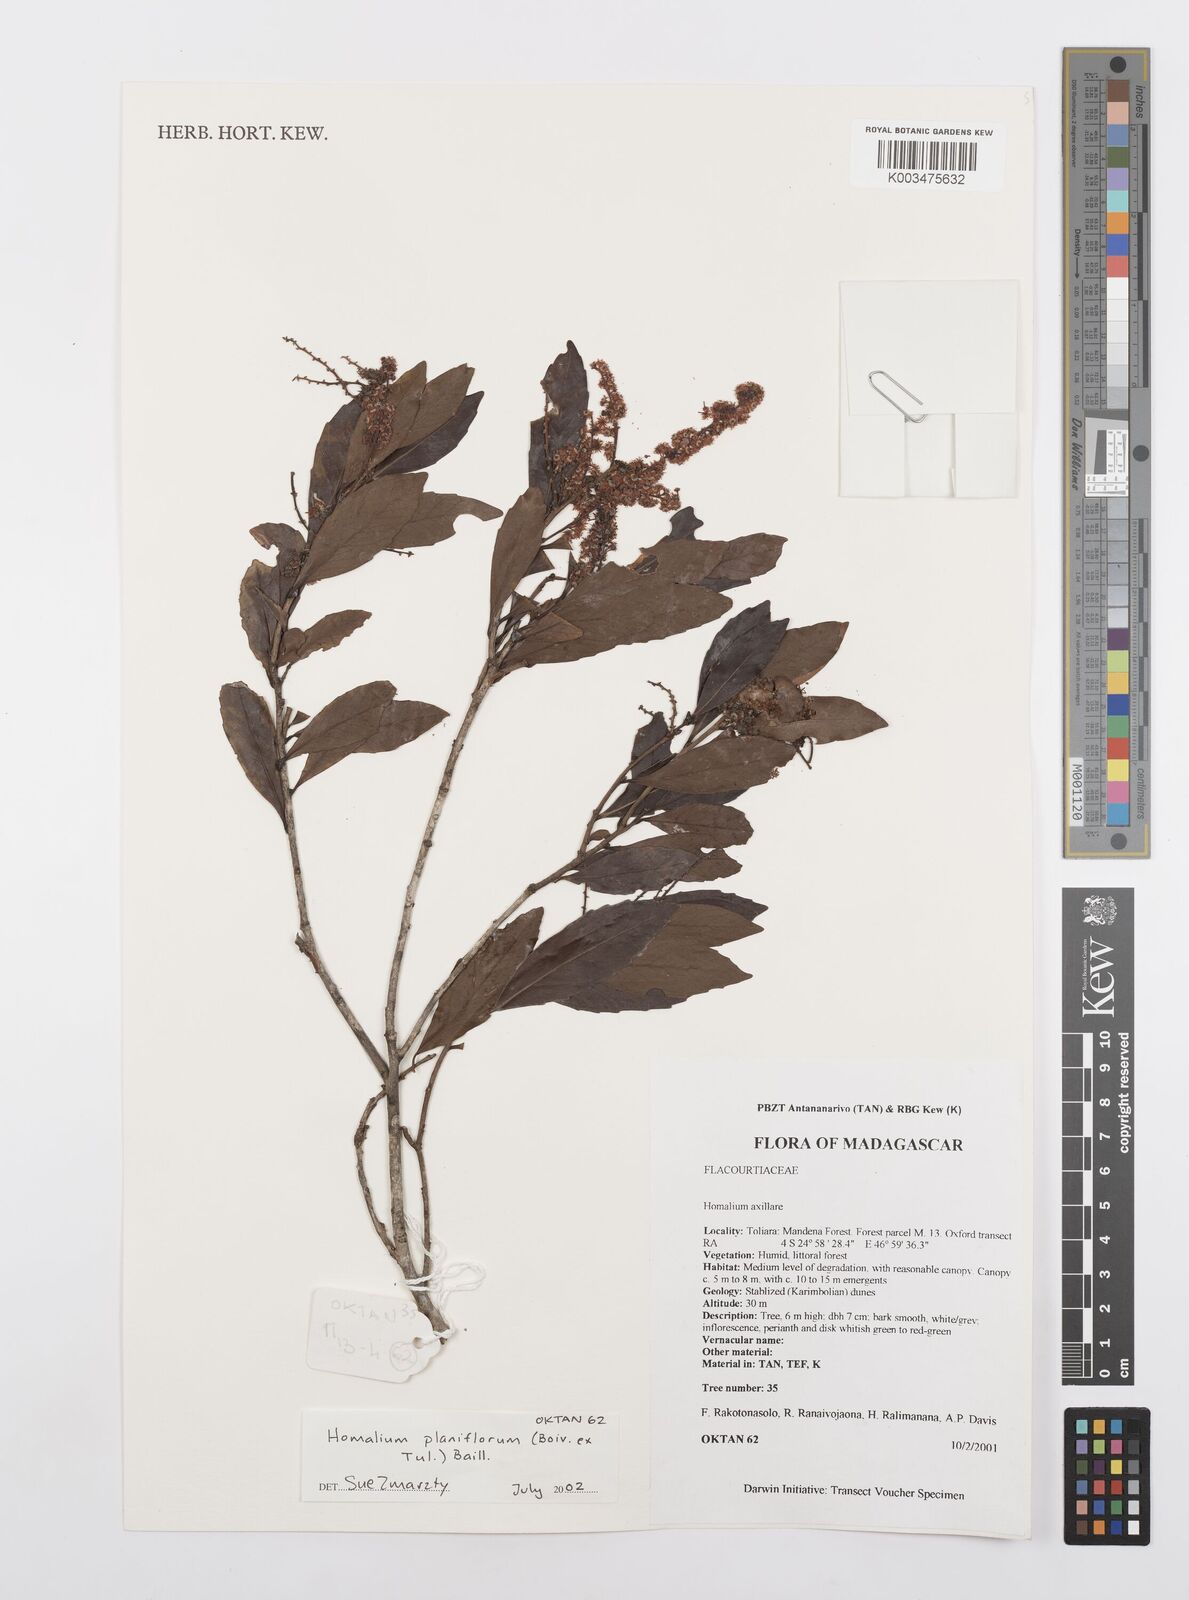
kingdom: Plantae
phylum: Tracheophyta
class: Magnoliopsida
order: Malpighiales
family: Salicaceae
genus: Homalium
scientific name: Homalium planiflorum
